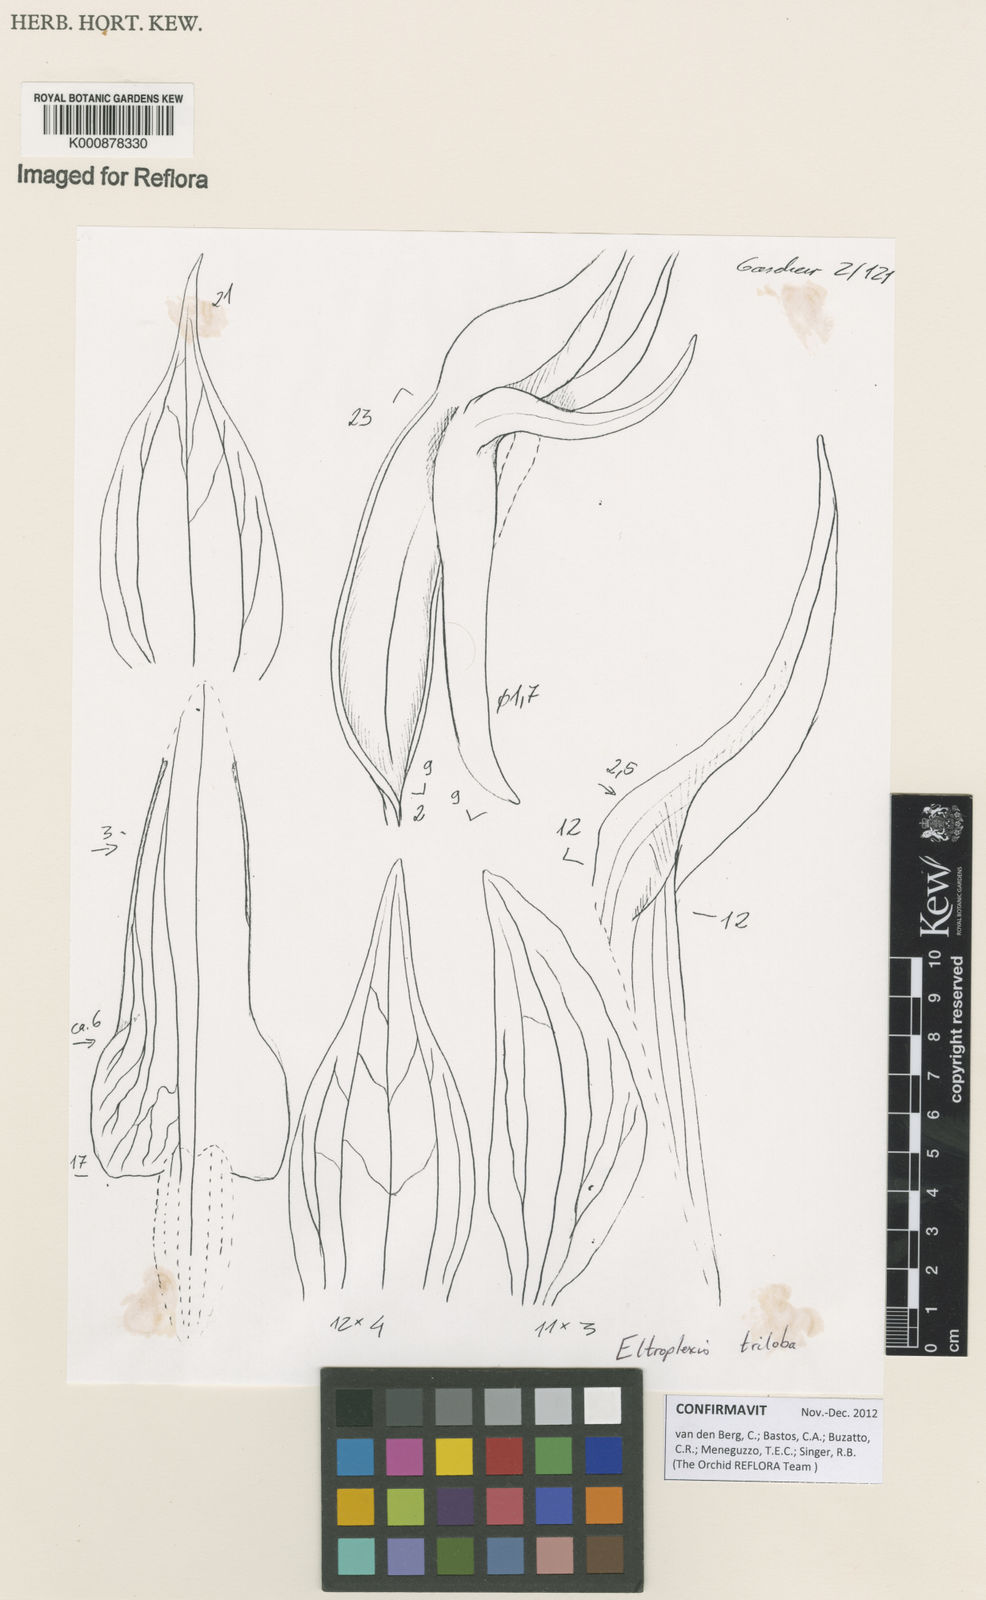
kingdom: Plantae
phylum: Tracheophyta
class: Liliopsida
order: Asparagales
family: Orchidaceae
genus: Eltroplectris
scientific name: Eltroplectris triloba
